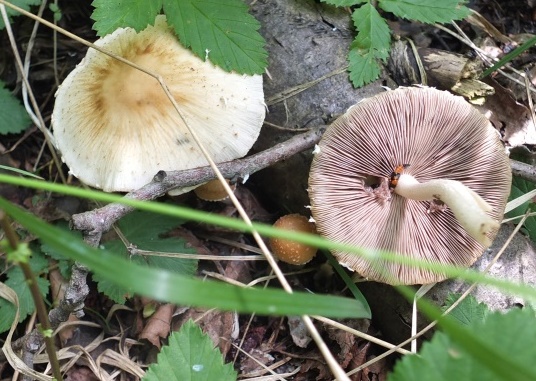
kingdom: Fungi
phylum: Basidiomycota
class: Agaricomycetes
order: Agaricales
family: Psathyrellaceae
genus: Candolleomyces
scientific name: Candolleomyces candolleanus
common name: Candolles mørkhat
